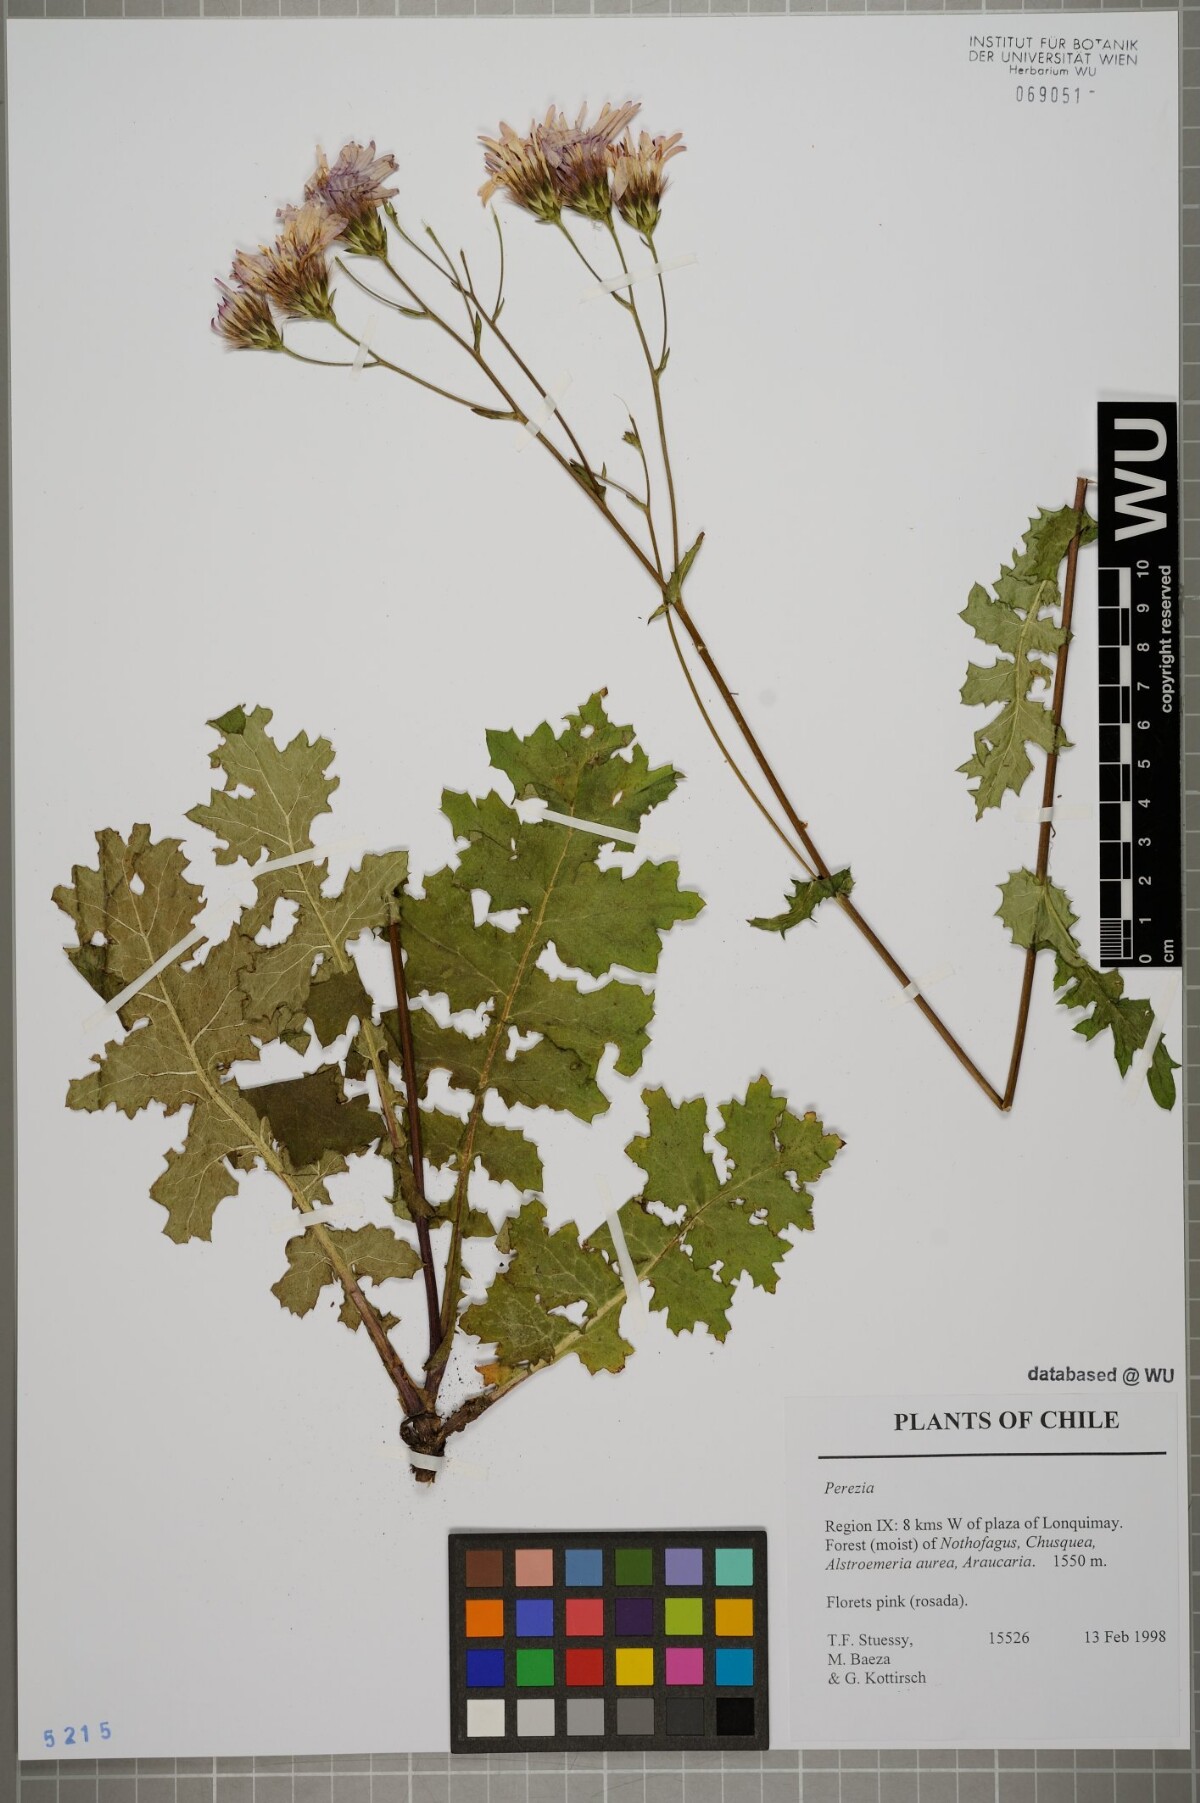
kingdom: Plantae
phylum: Tracheophyta
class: Magnoliopsida
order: Asterales
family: Asteraceae
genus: Perezia
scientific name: Perezia
